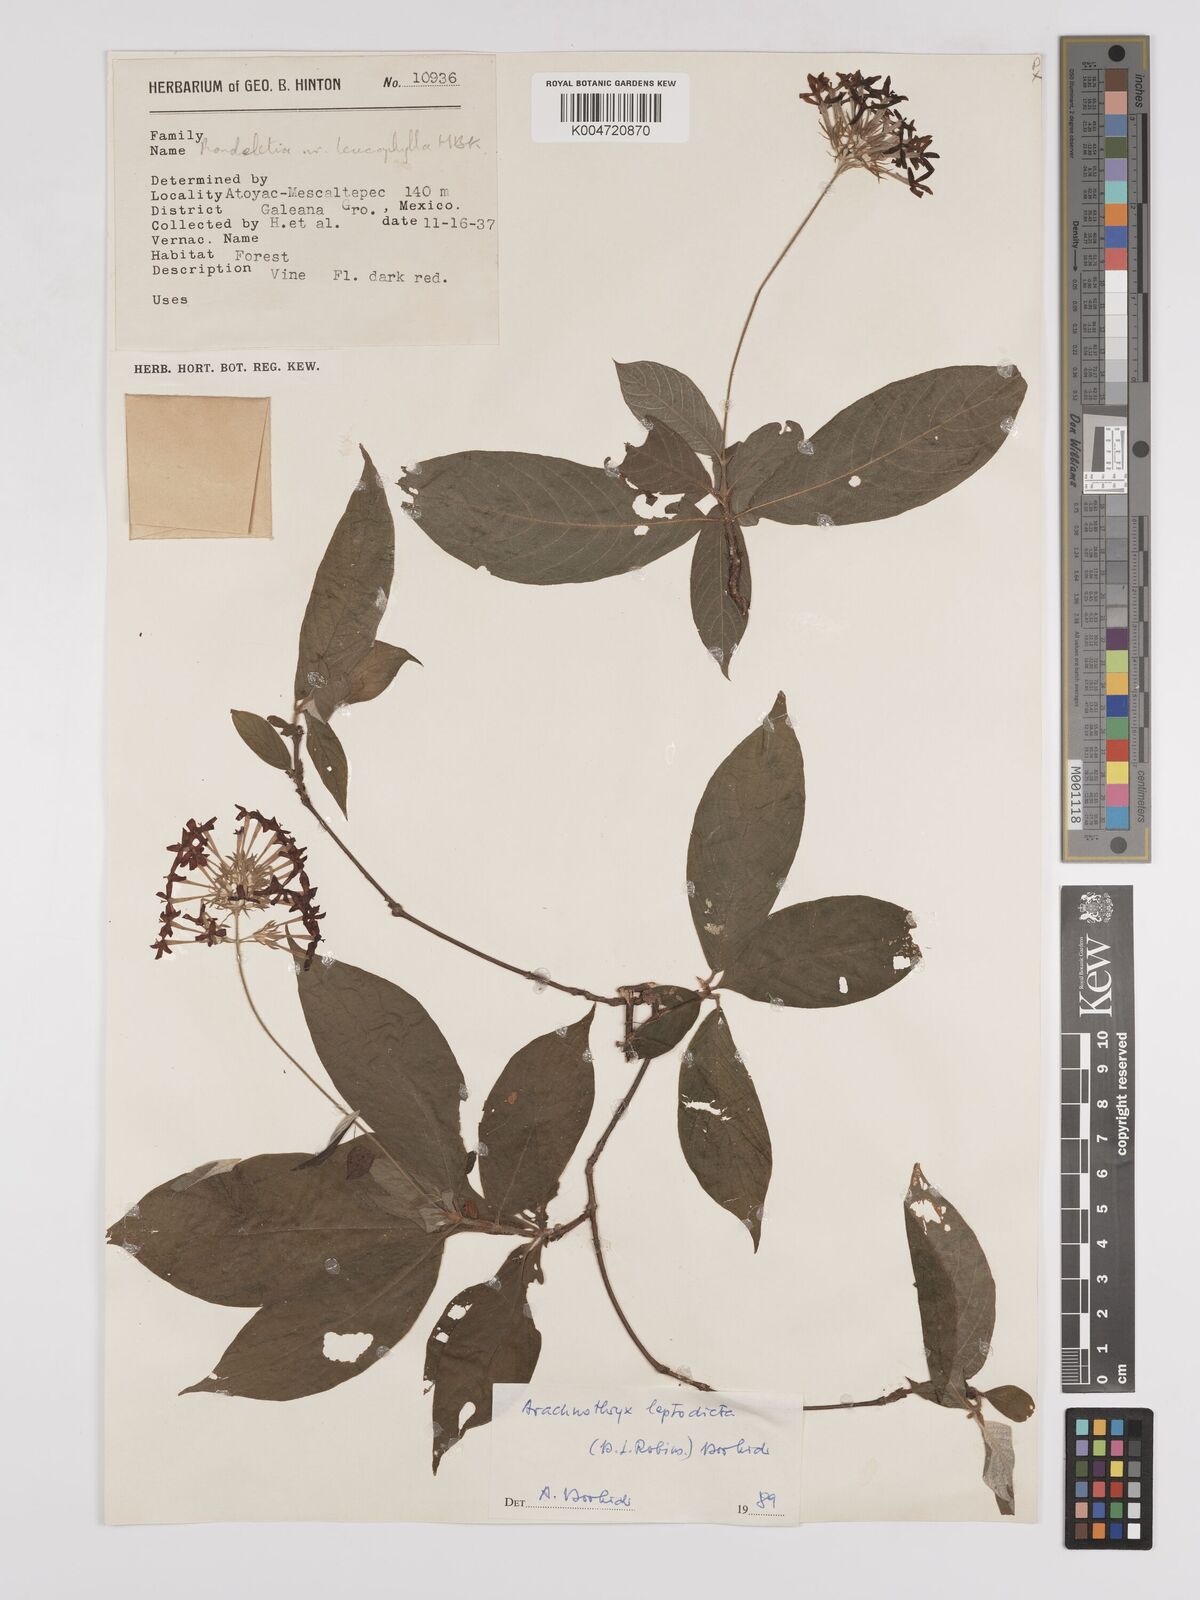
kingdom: Plantae
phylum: Tracheophyta
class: Magnoliopsida
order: Gentianales
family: Rubiaceae
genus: Arachnothryx
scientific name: Arachnothryx leucophylla
